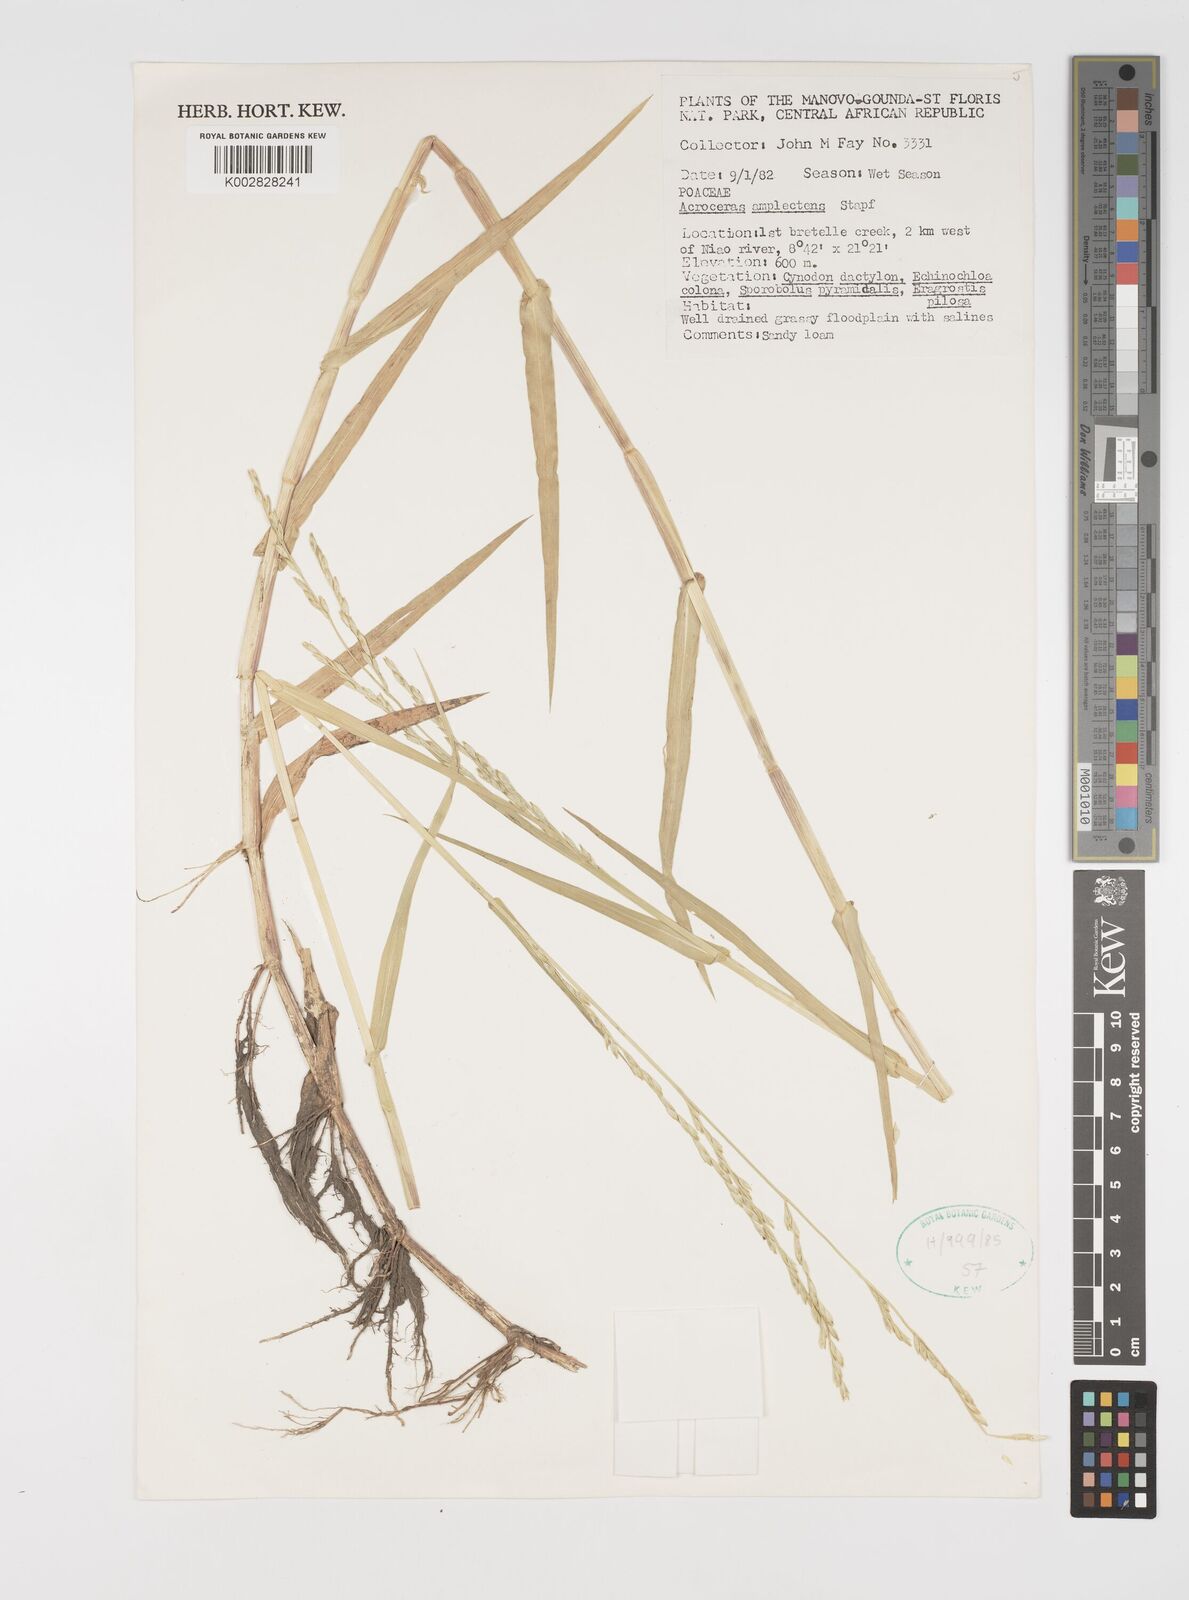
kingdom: Plantae
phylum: Tracheophyta
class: Liliopsida
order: Poales
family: Poaceae
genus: Acroceras
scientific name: Acroceras amplectens
